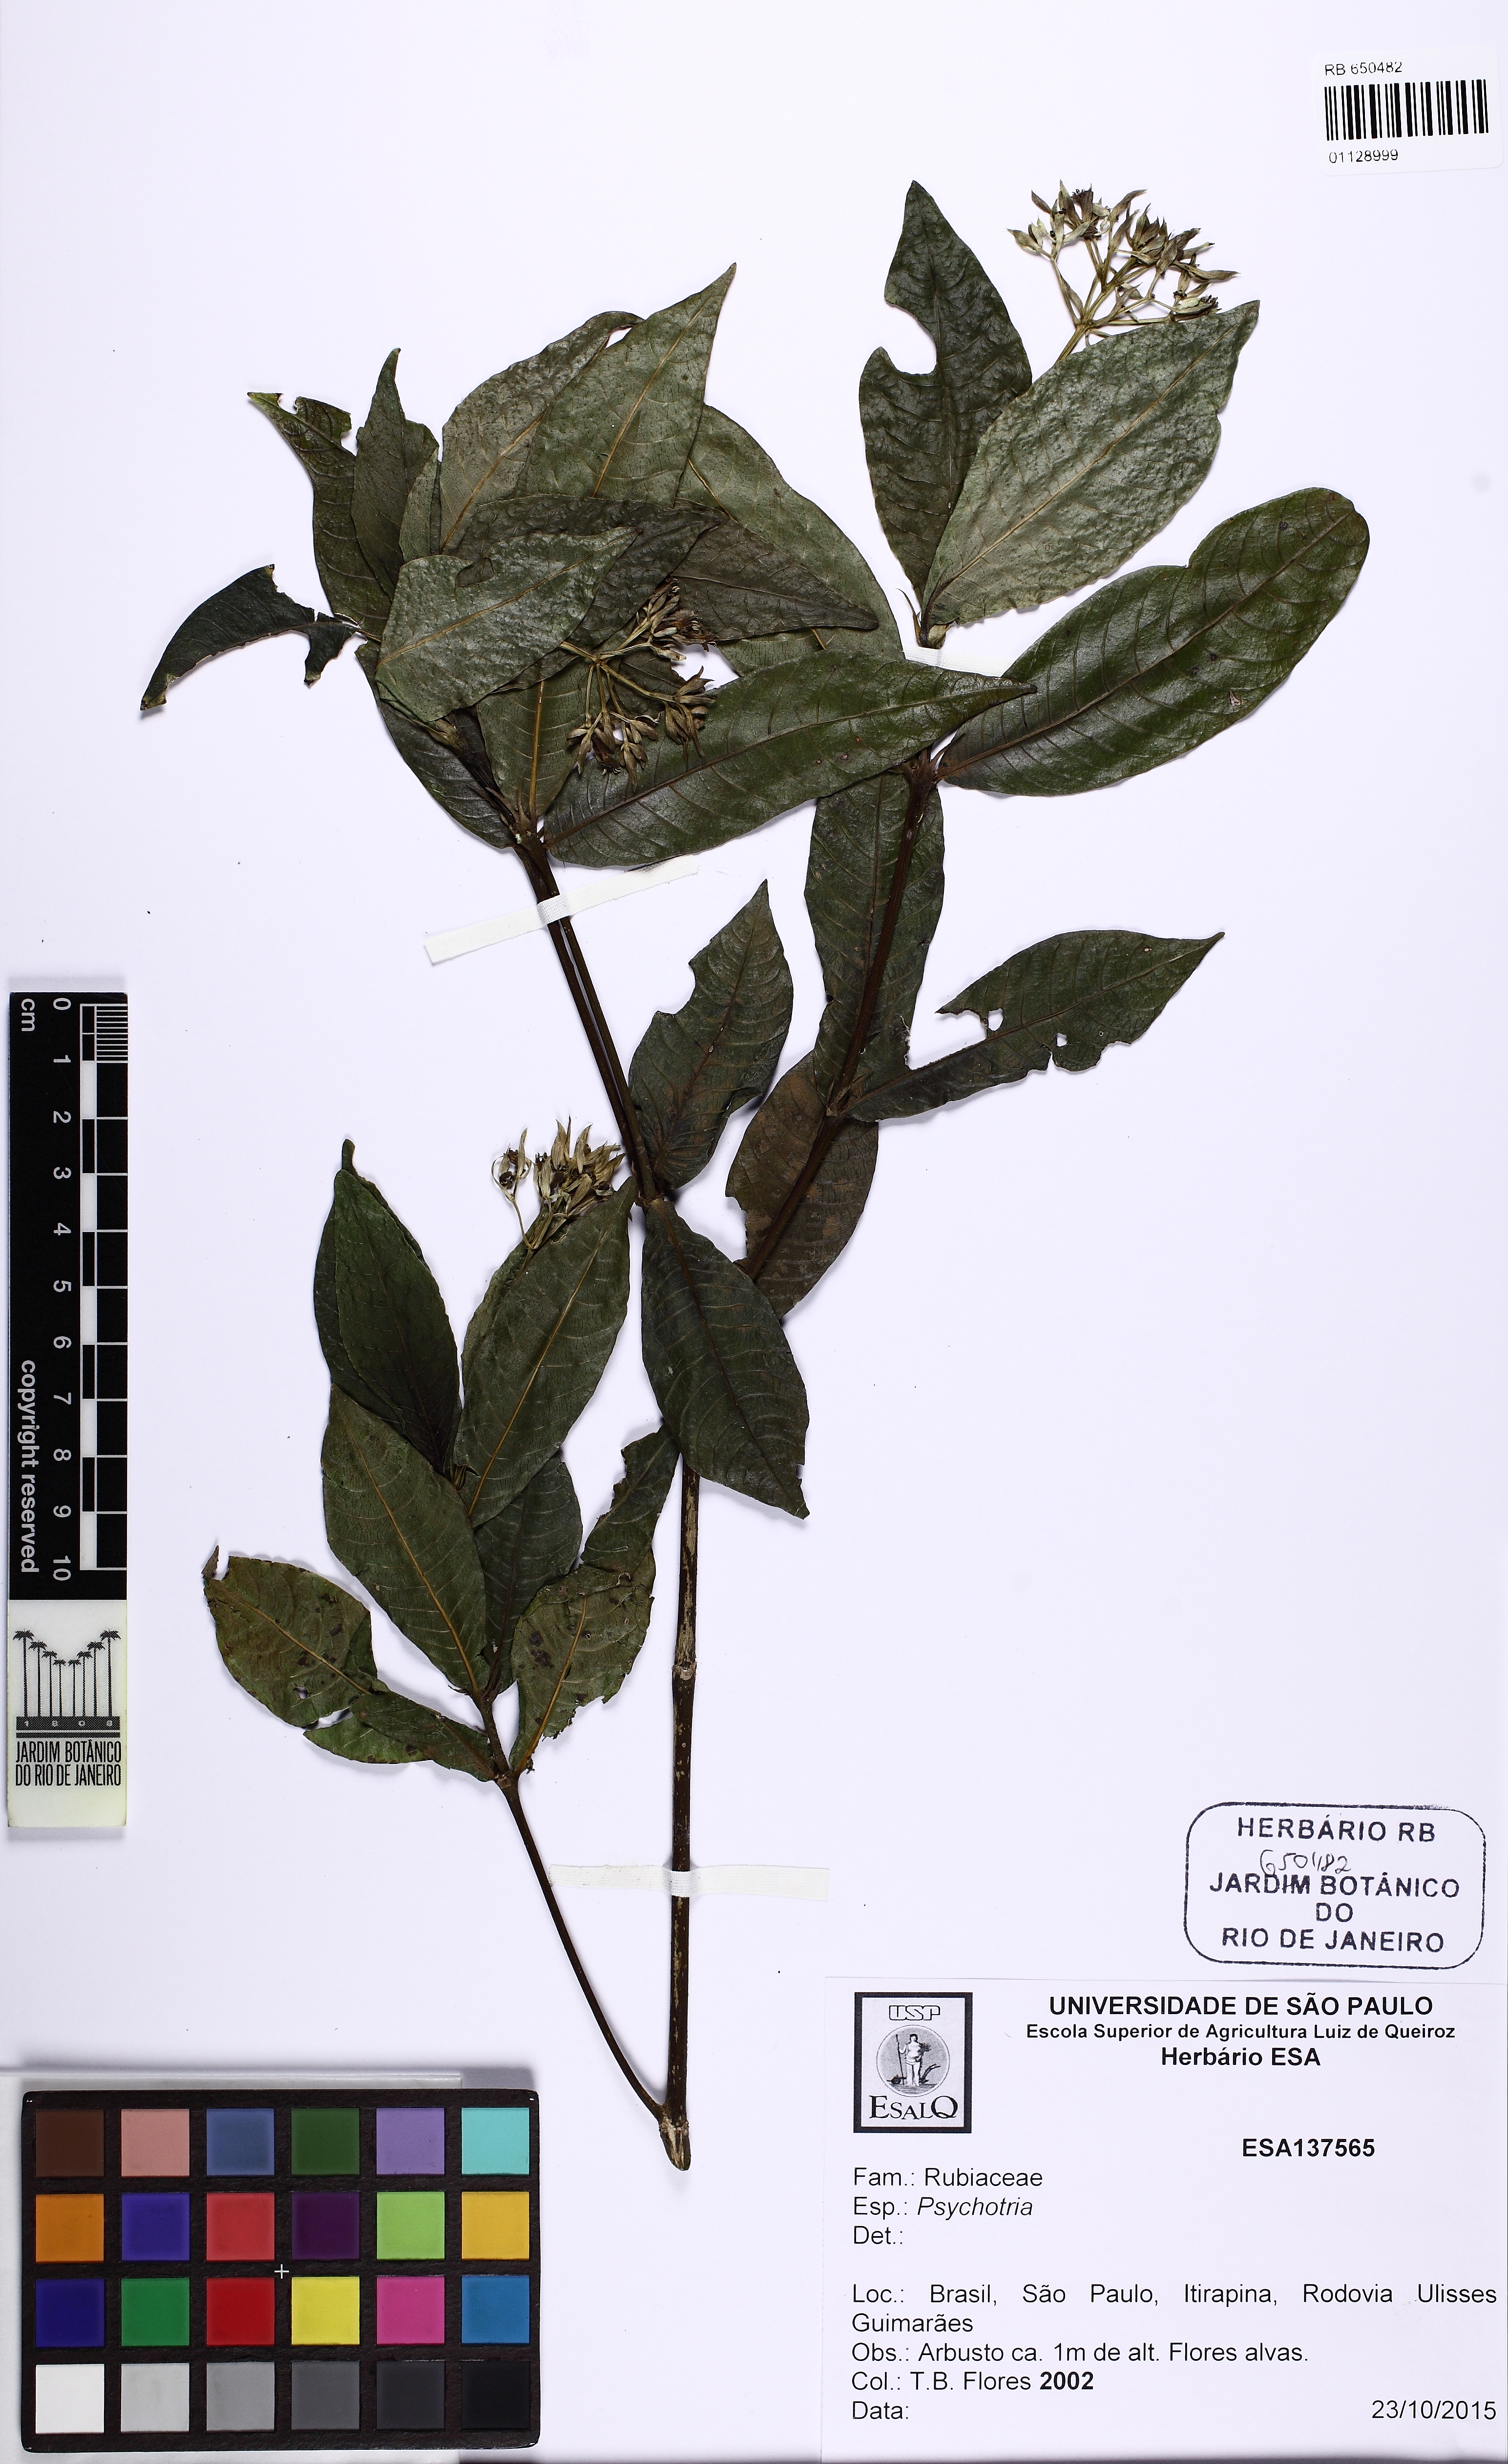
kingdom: Plantae
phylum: Tracheophyta
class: Magnoliopsida
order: Gentianales
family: Rubiaceae
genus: Palicourea
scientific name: Palicourea violacea
